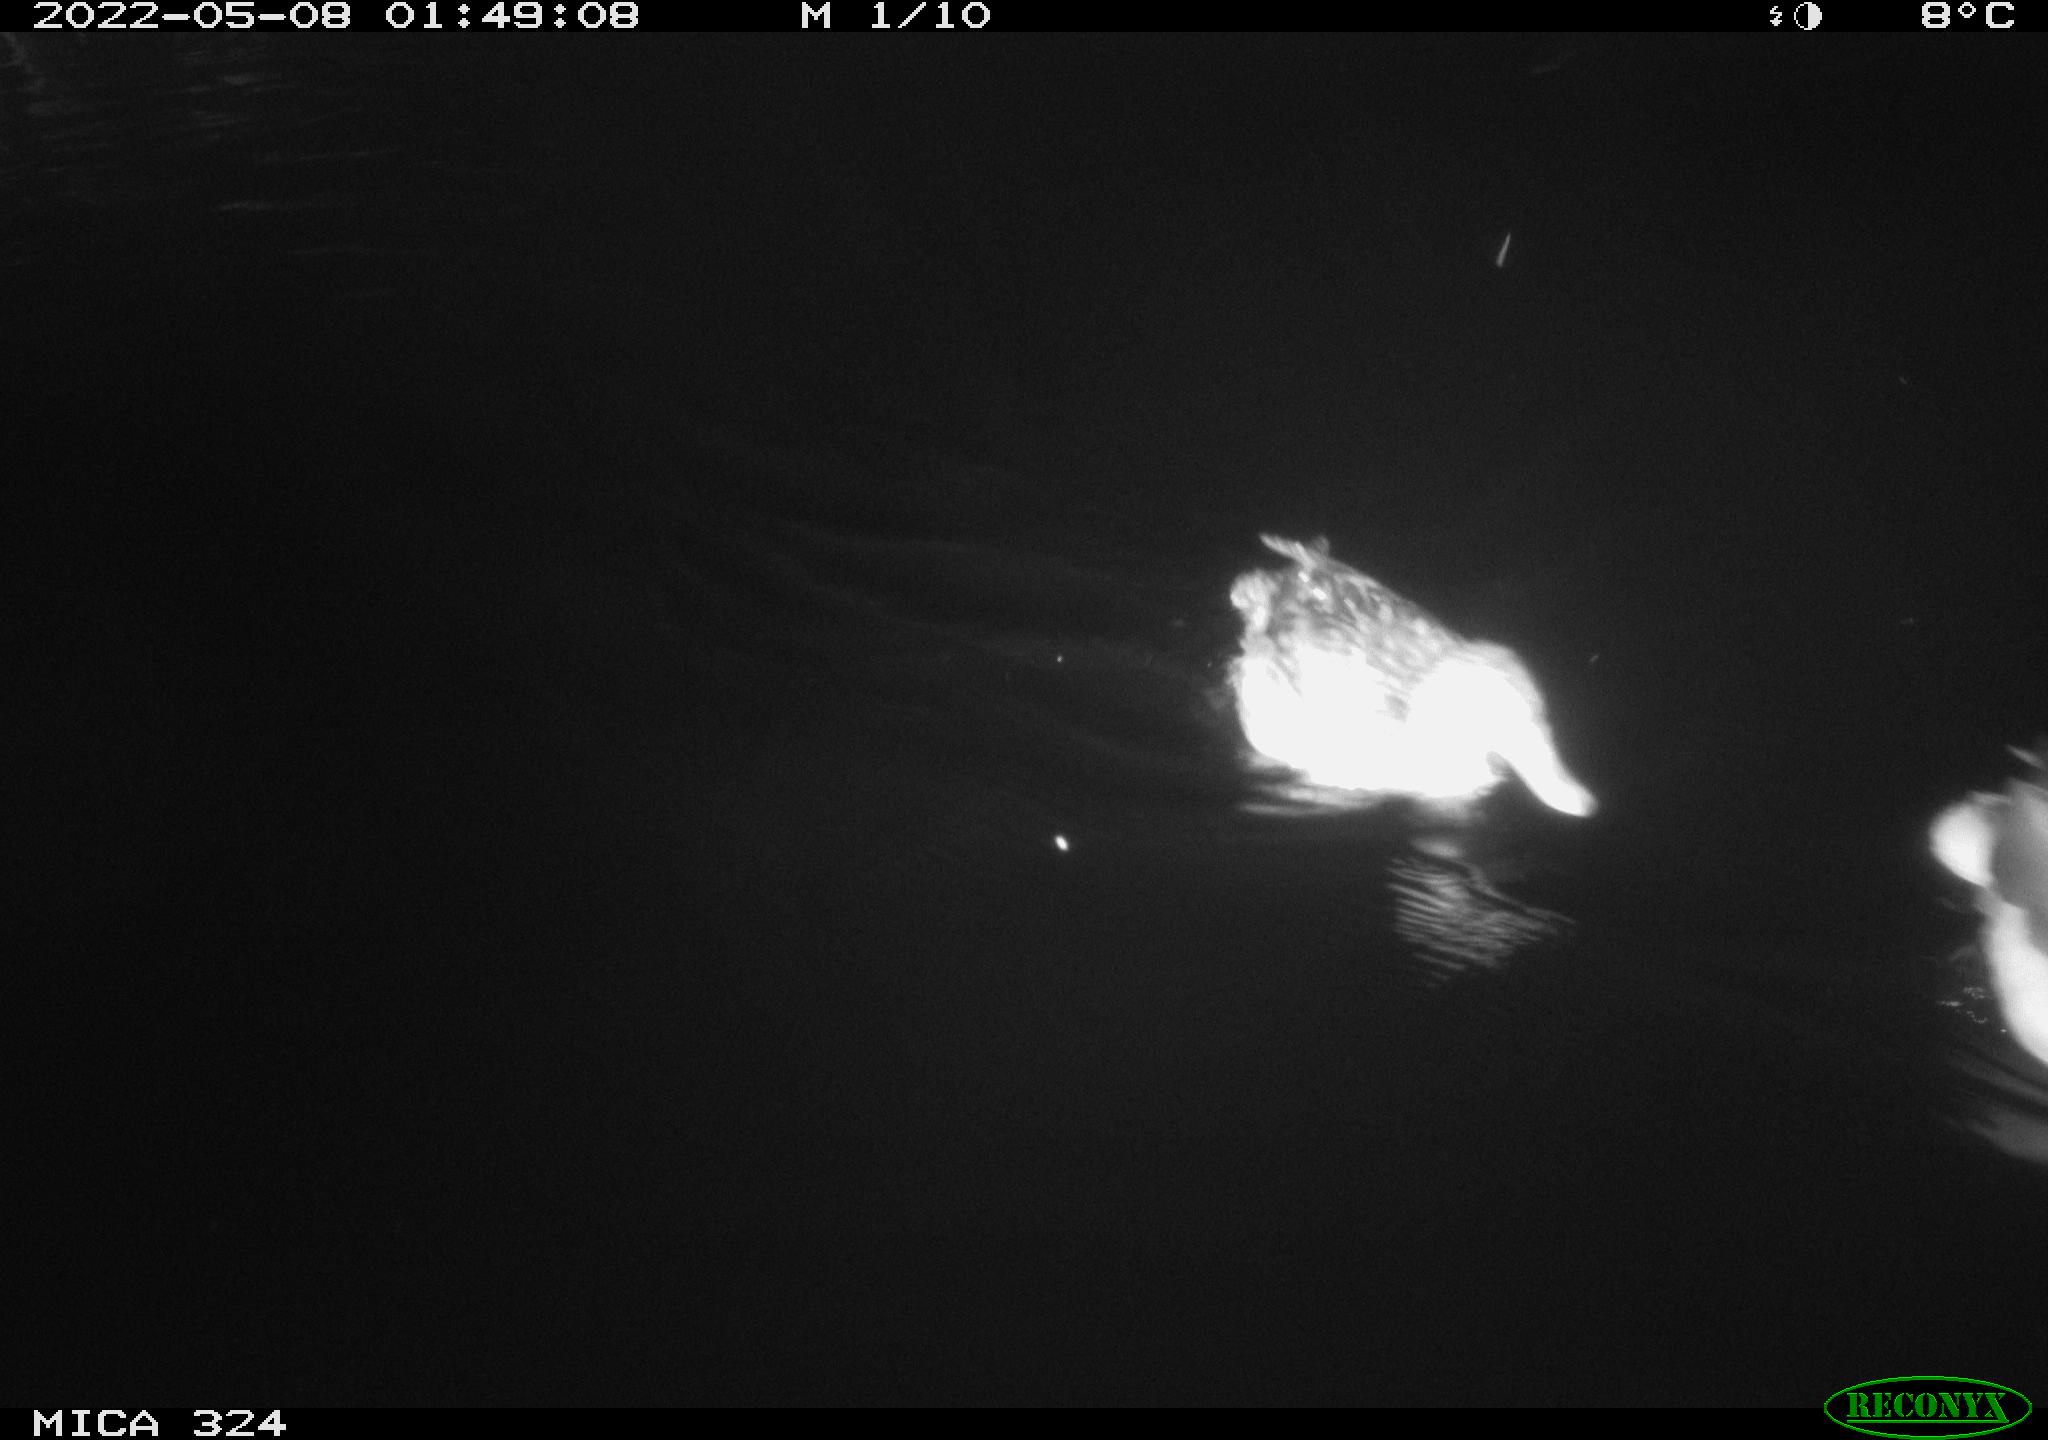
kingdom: Animalia
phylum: Chordata
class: Aves
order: Anseriformes
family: Anatidae
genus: Anas
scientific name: Anas platyrhynchos
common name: Mallard
